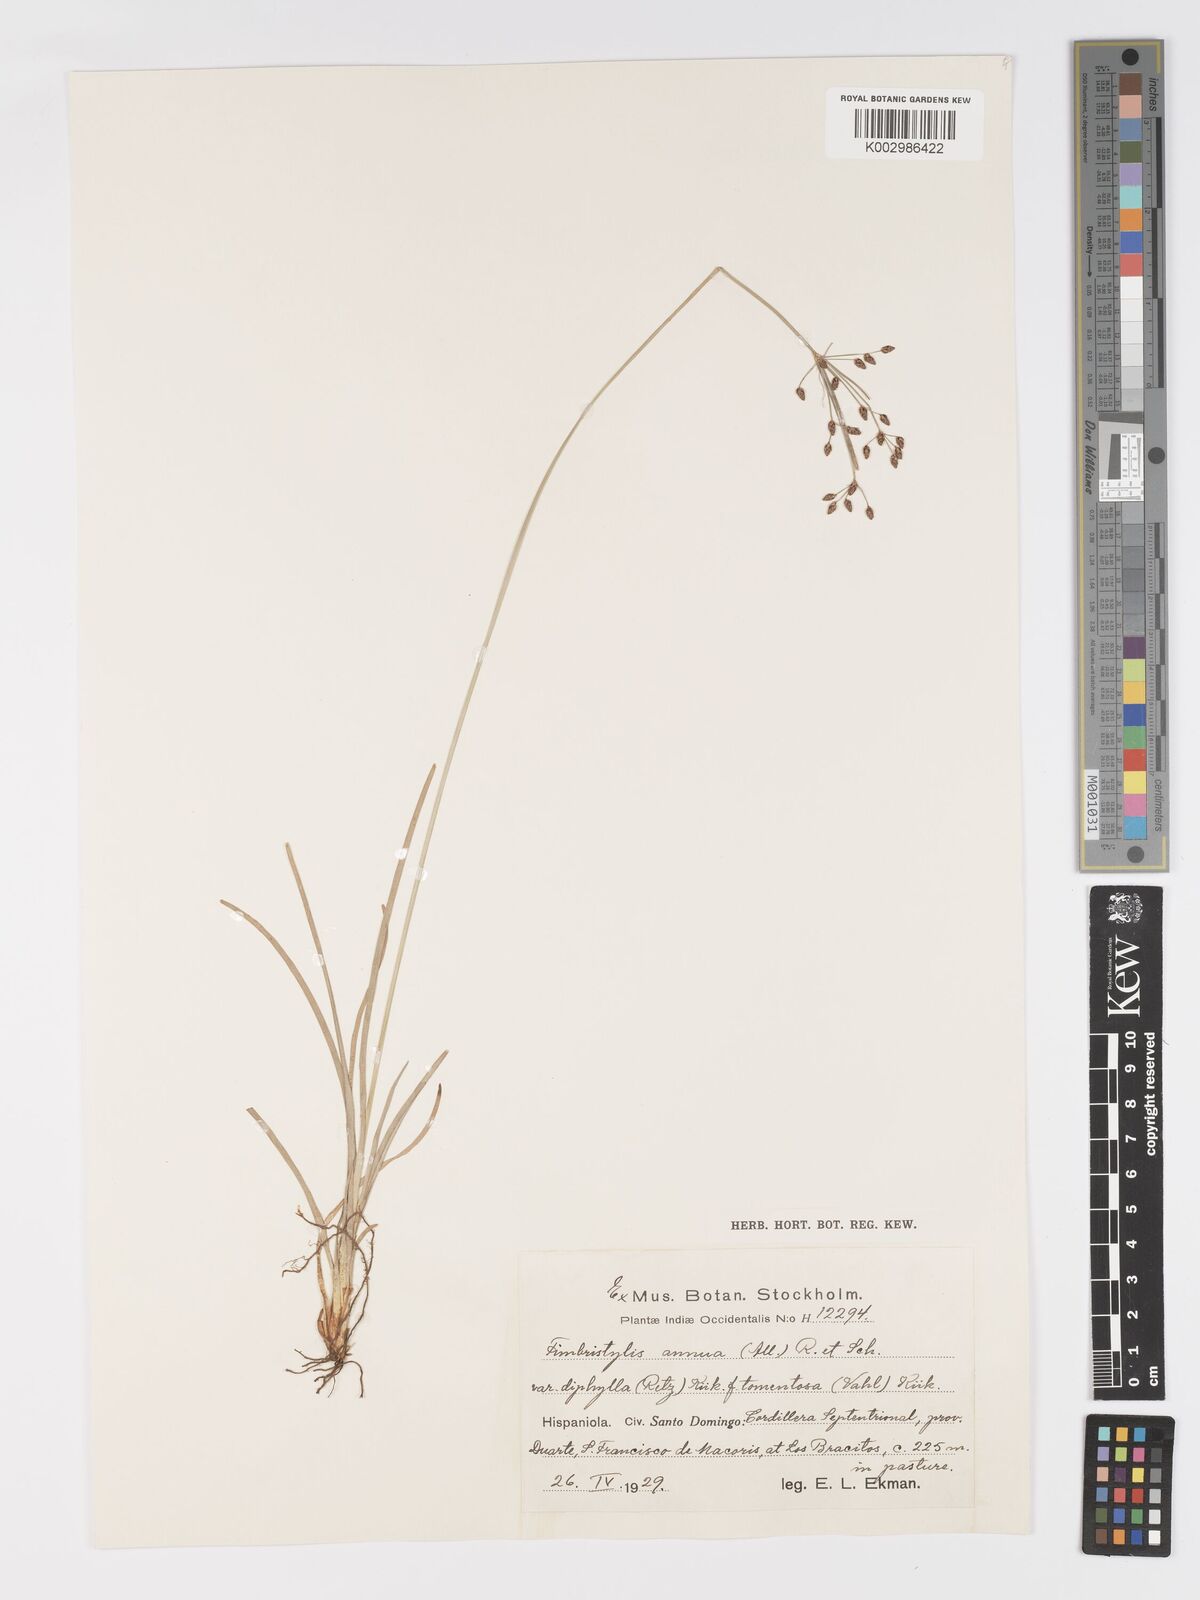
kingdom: Plantae
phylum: Tracheophyta
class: Liliopsida
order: Poales
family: Cyperaceae
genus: Fimbristylis
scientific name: Fimbristylis dichotoma
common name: Forked fimbry
